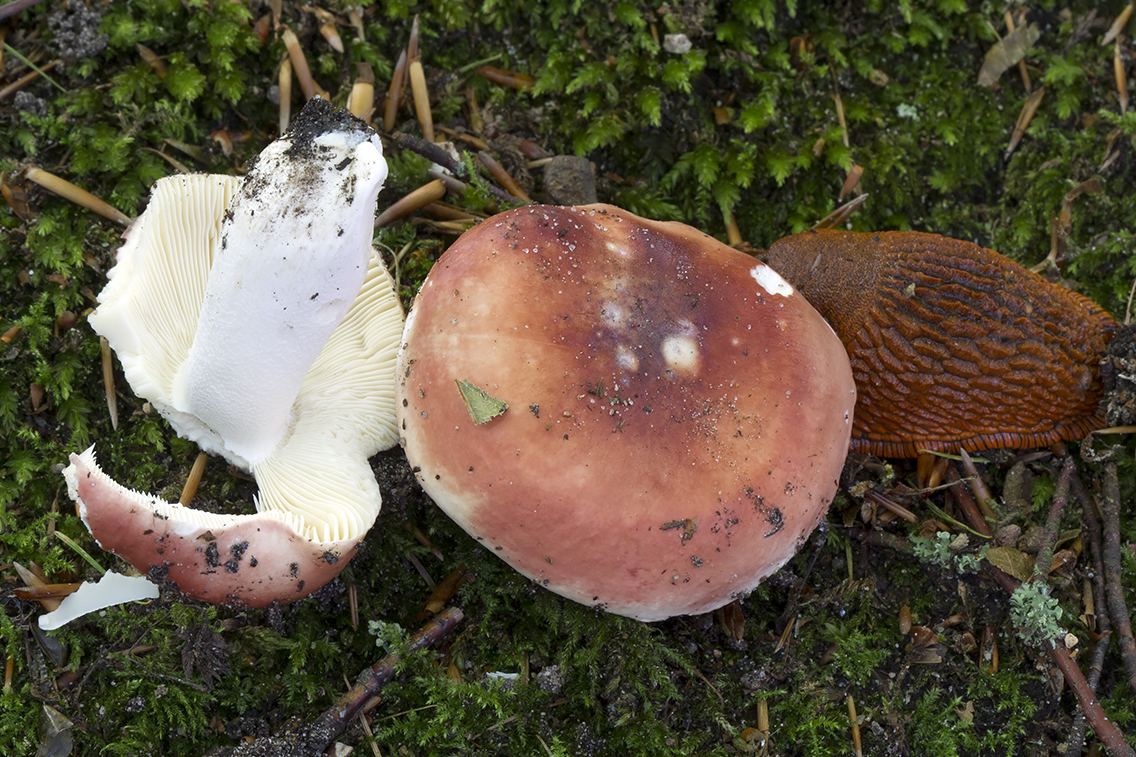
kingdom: Fungi
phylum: Basidiomycota
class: Agaricomycetes
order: Russulales
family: Russulaceae
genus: Russula
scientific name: Russula aurora
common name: rosa skørhat
